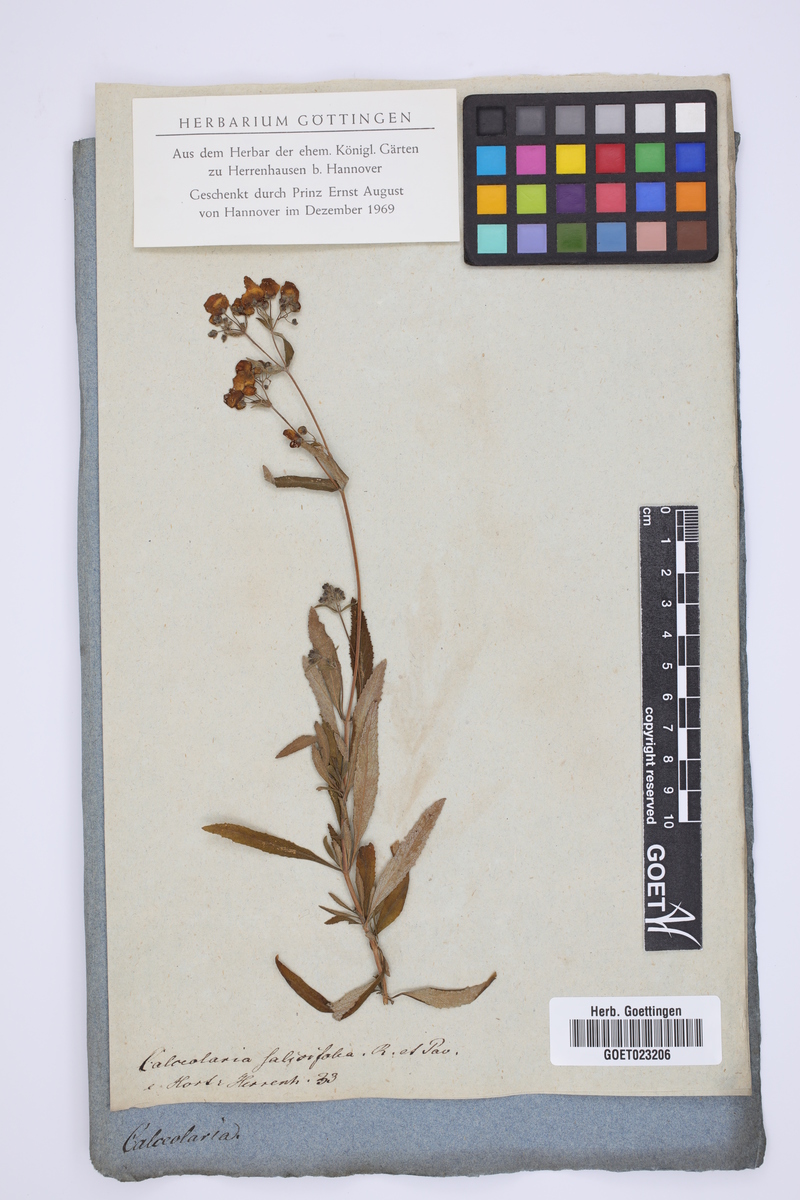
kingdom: Plantae
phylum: Tracheophyta
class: Magnoliopsida
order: Lamiales
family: Calceolariaceae
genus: Calceolaria
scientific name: Calceolaria salicifolia
